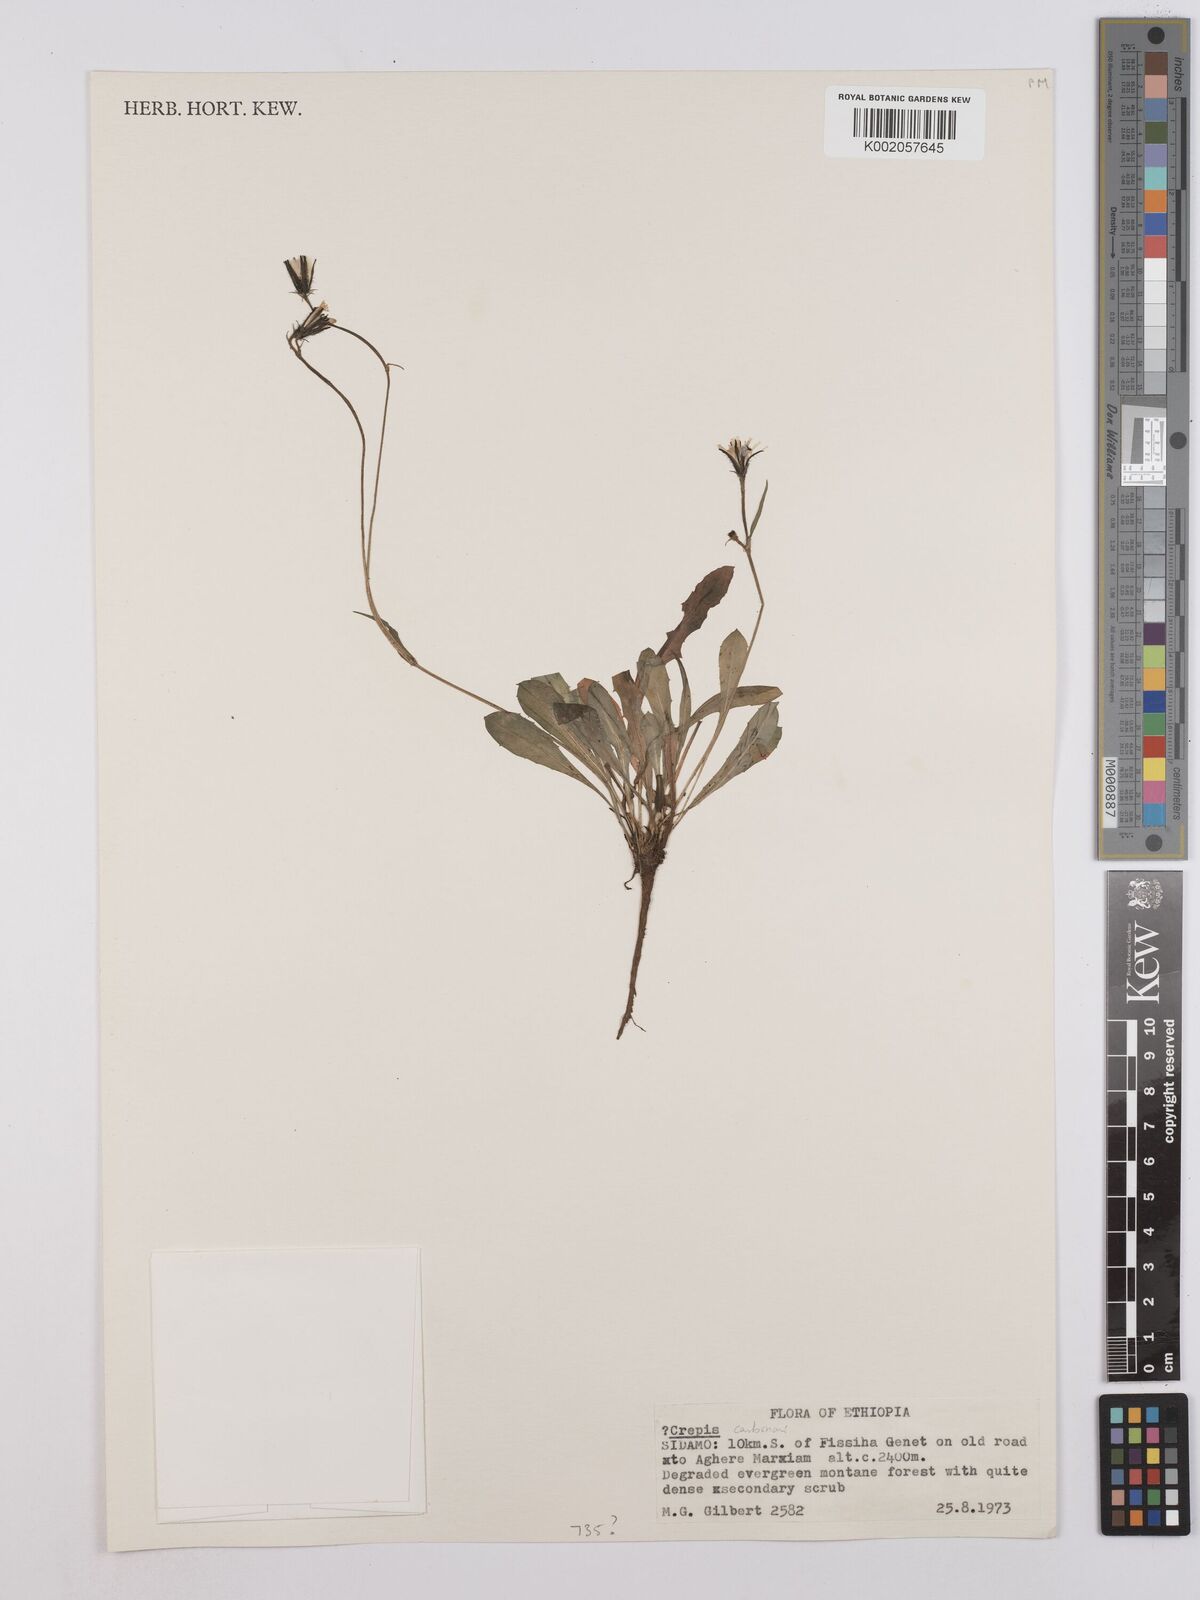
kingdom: Plantae
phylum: Tracheophyta
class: Magnoliopsida
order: Asterales
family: Asteraceae
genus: Crepis
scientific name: Crepis carbonaria
